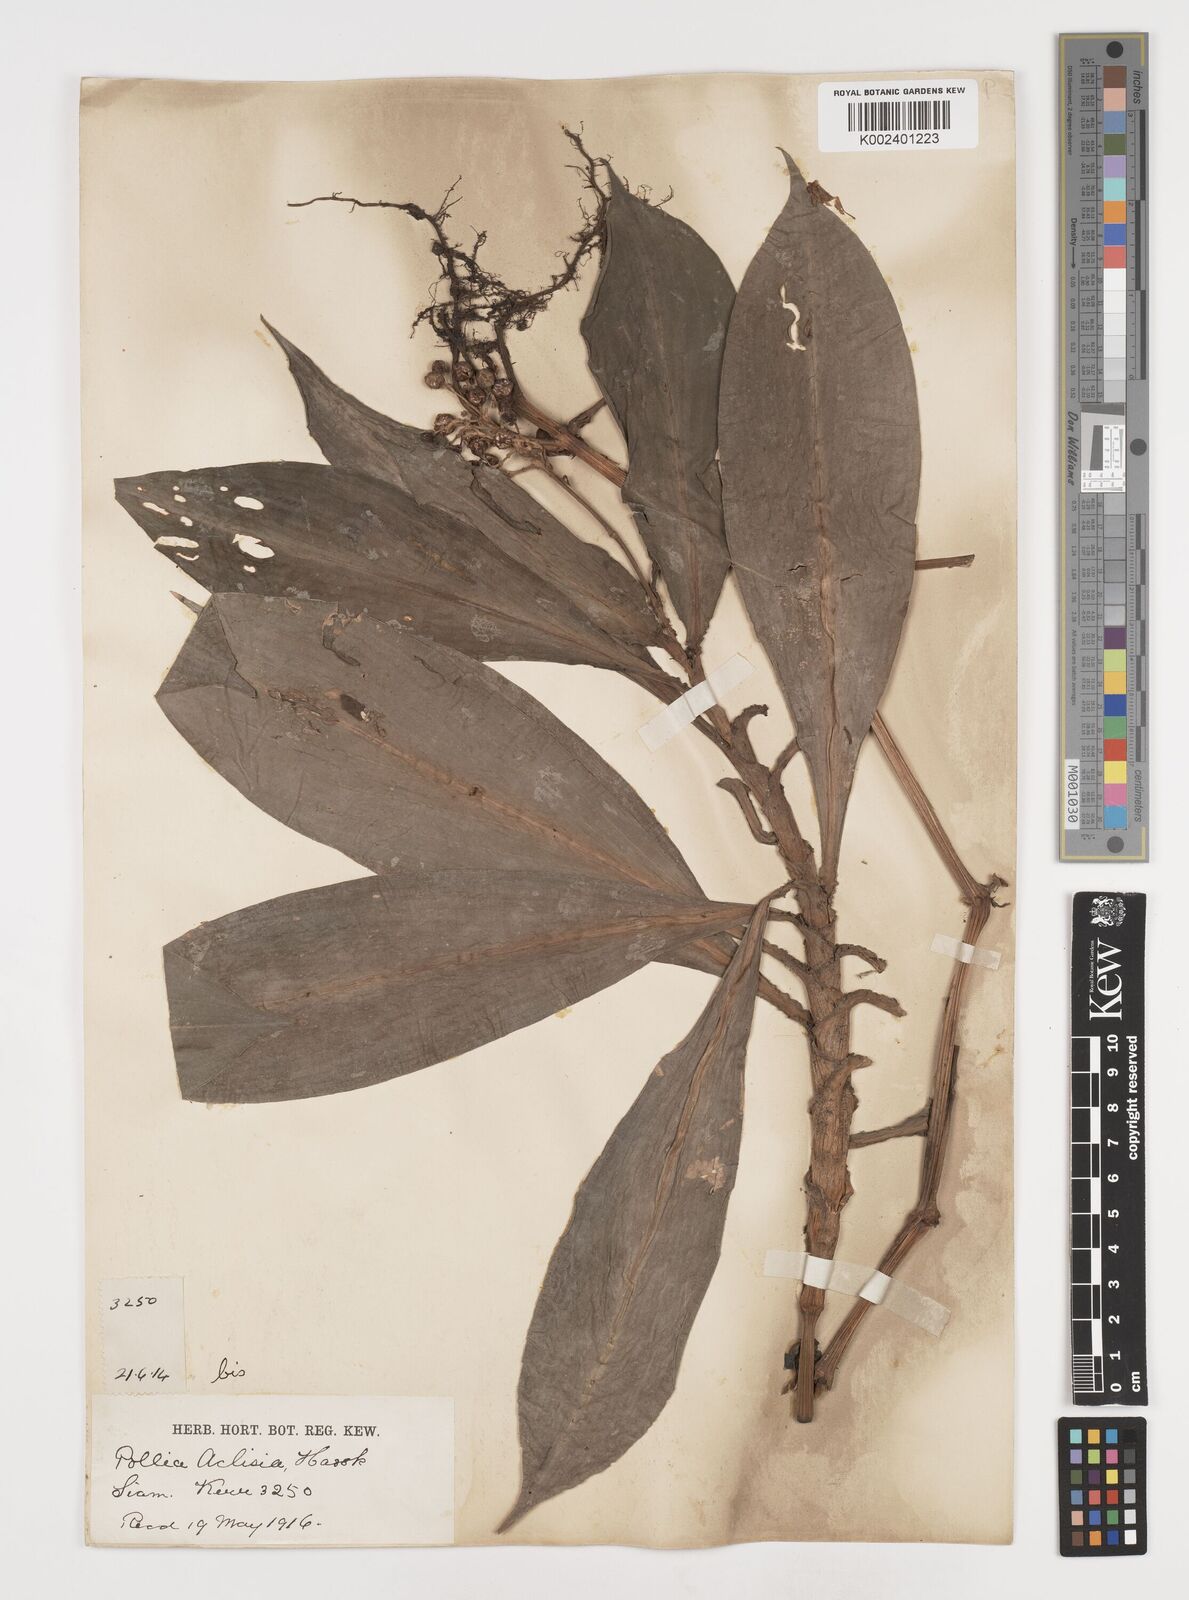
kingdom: Plantae
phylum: Tracheophyta
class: Liliopsida
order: Commelinales
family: Commelinaceae
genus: Pollia
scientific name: Pollia hasskarlii
